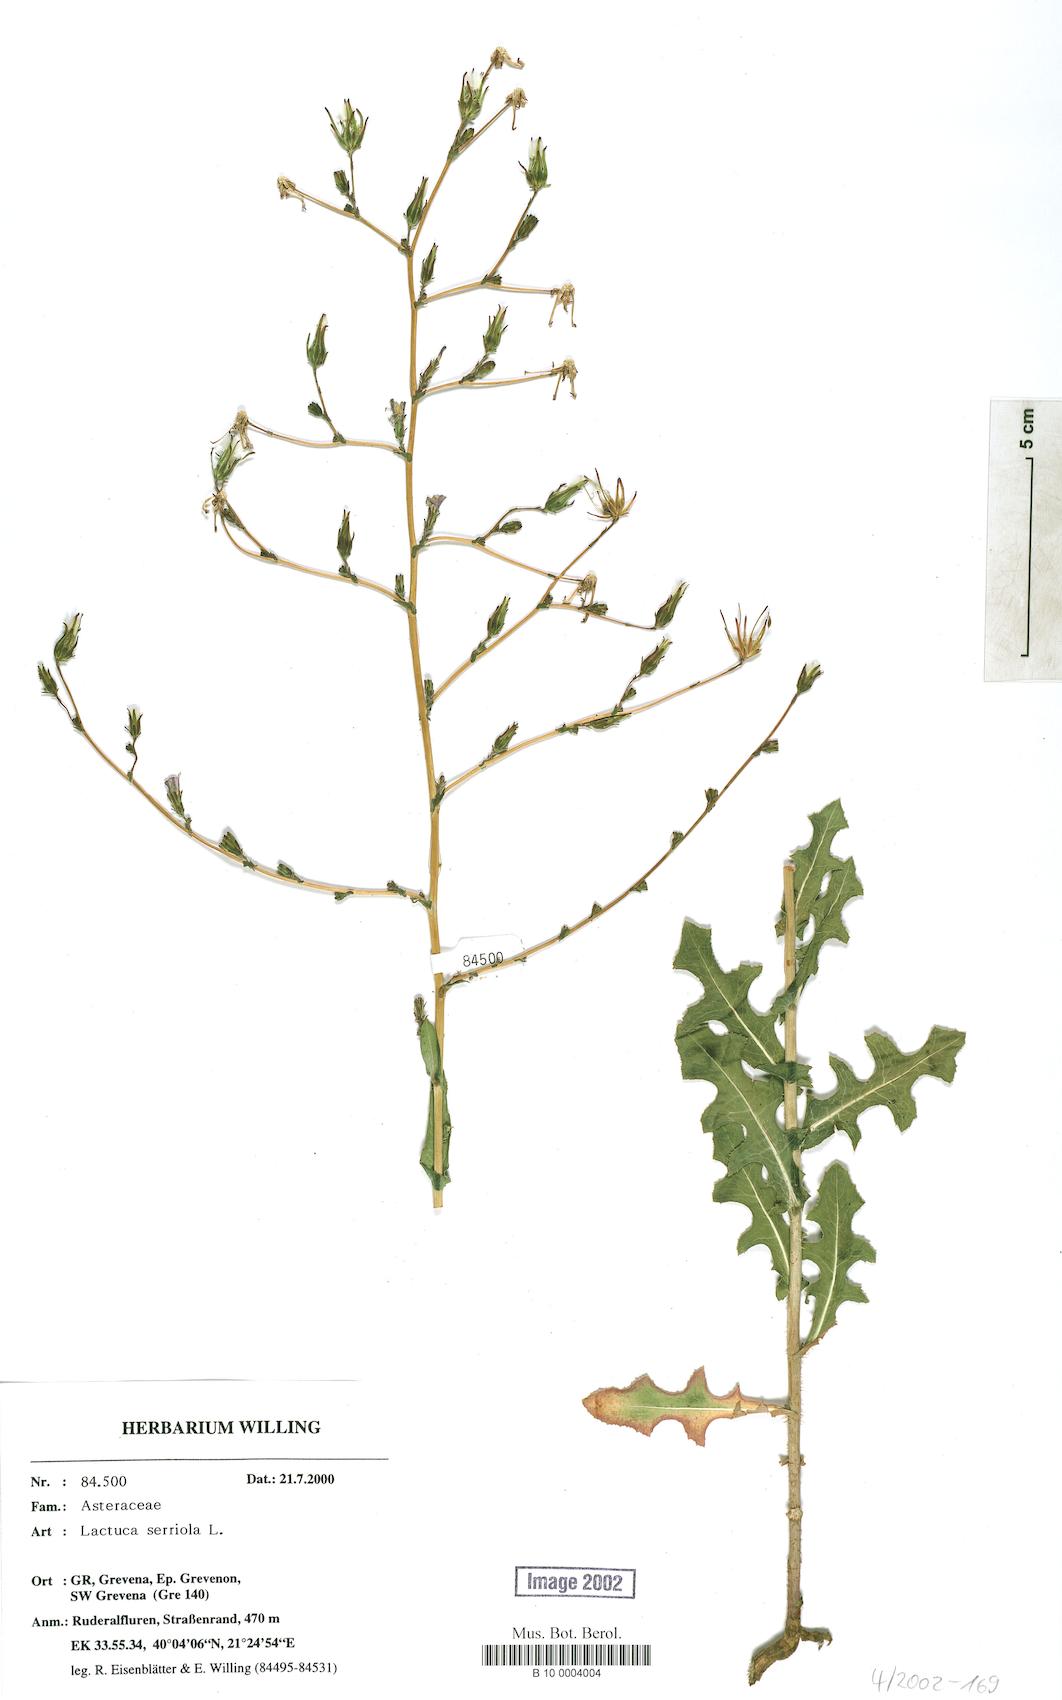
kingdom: Plantae
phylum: Tracheophyta
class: Magnoliopsida
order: Asterales
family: Asteraceae
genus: Lactuca
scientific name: Lactuca serriola
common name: Prickly lettuce
